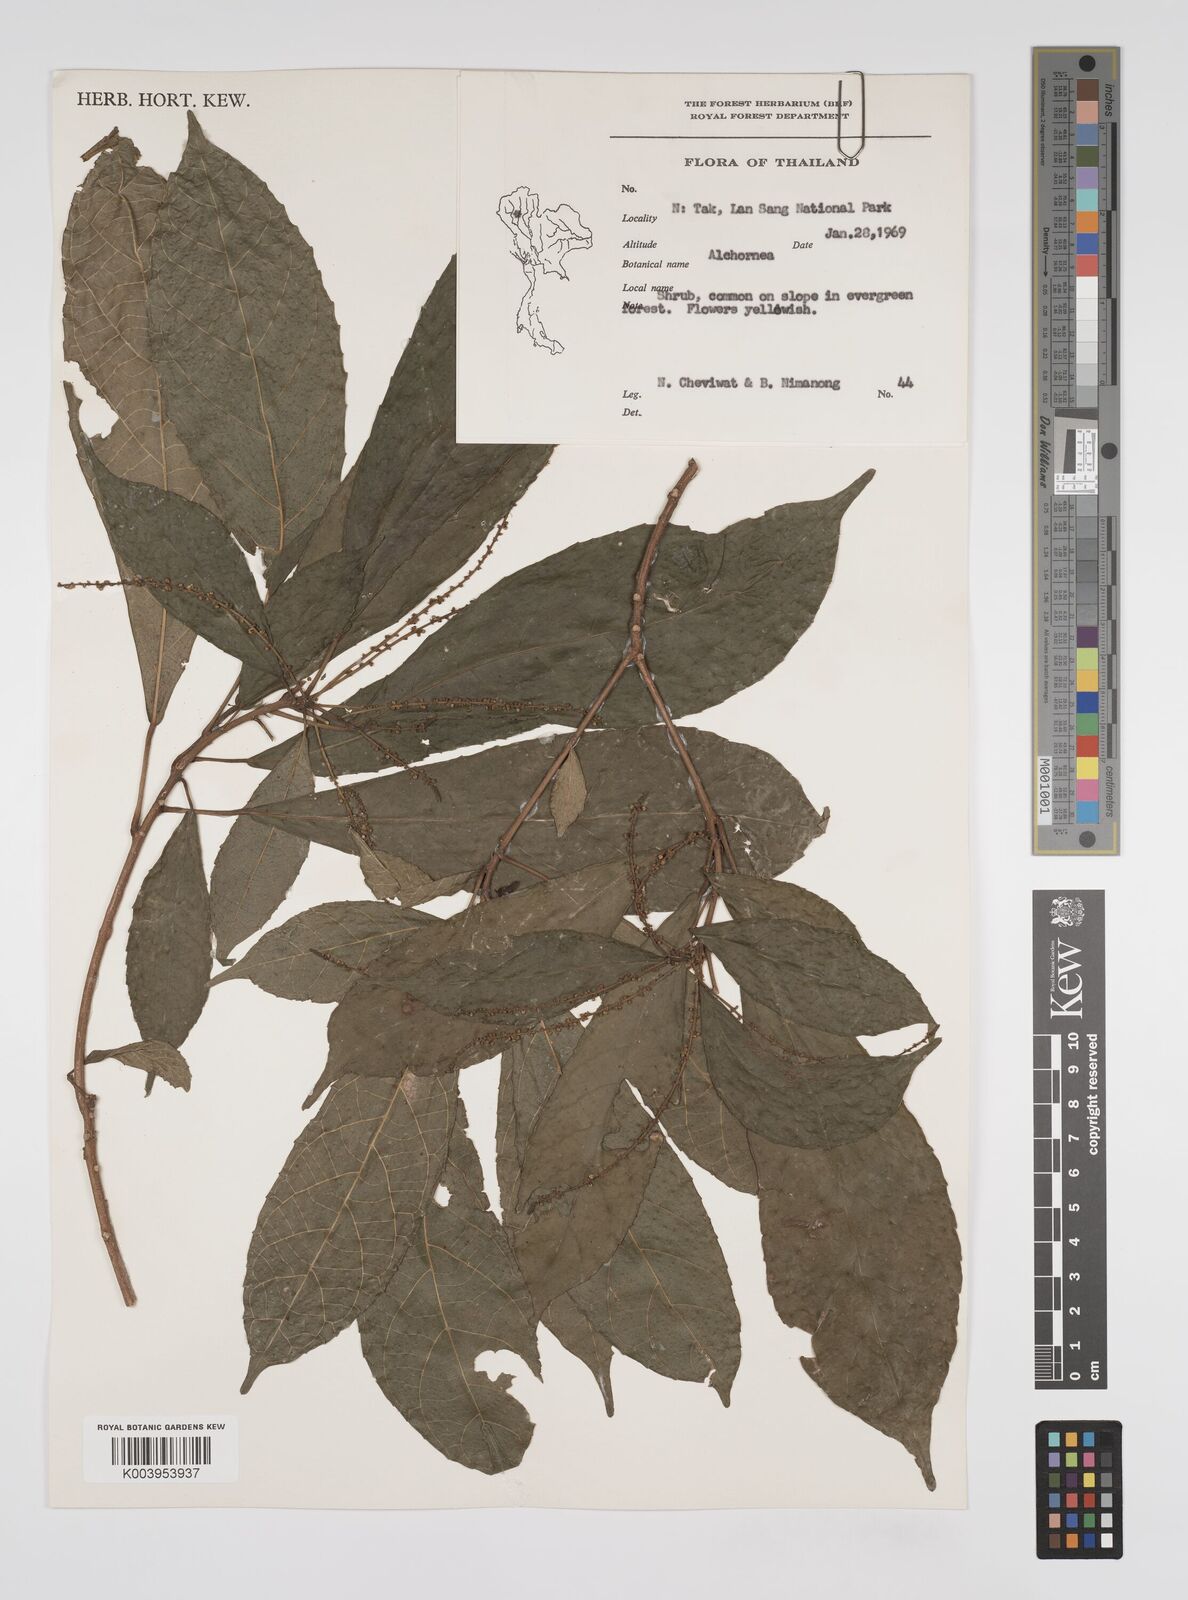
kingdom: Plantae
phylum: Tracheophyta
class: Magnoliopsida
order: Malpighiales
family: Euphorbiaceae
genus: Alchornea
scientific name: Alchornea rugosa
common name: Alchorntree
